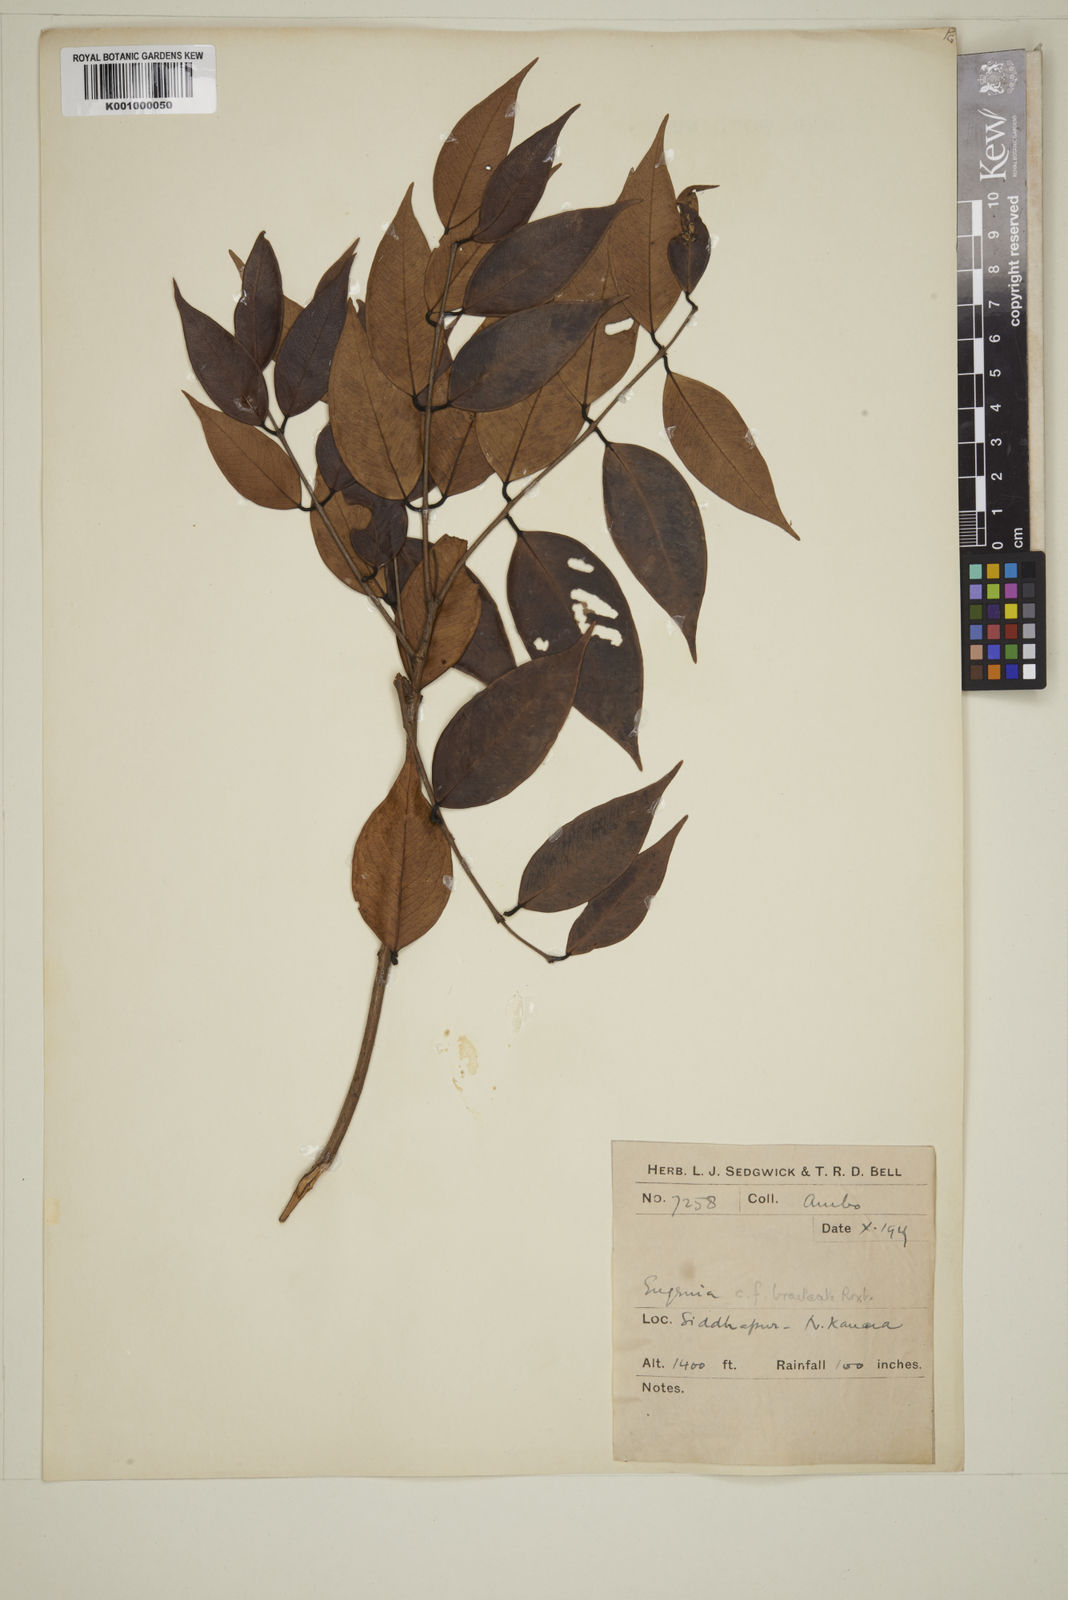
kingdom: Plantae
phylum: Tracheophyta
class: Magnoliopsida
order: Myrtales
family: Myrtaceae
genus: Myrcia
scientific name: Myrcia bracteata
